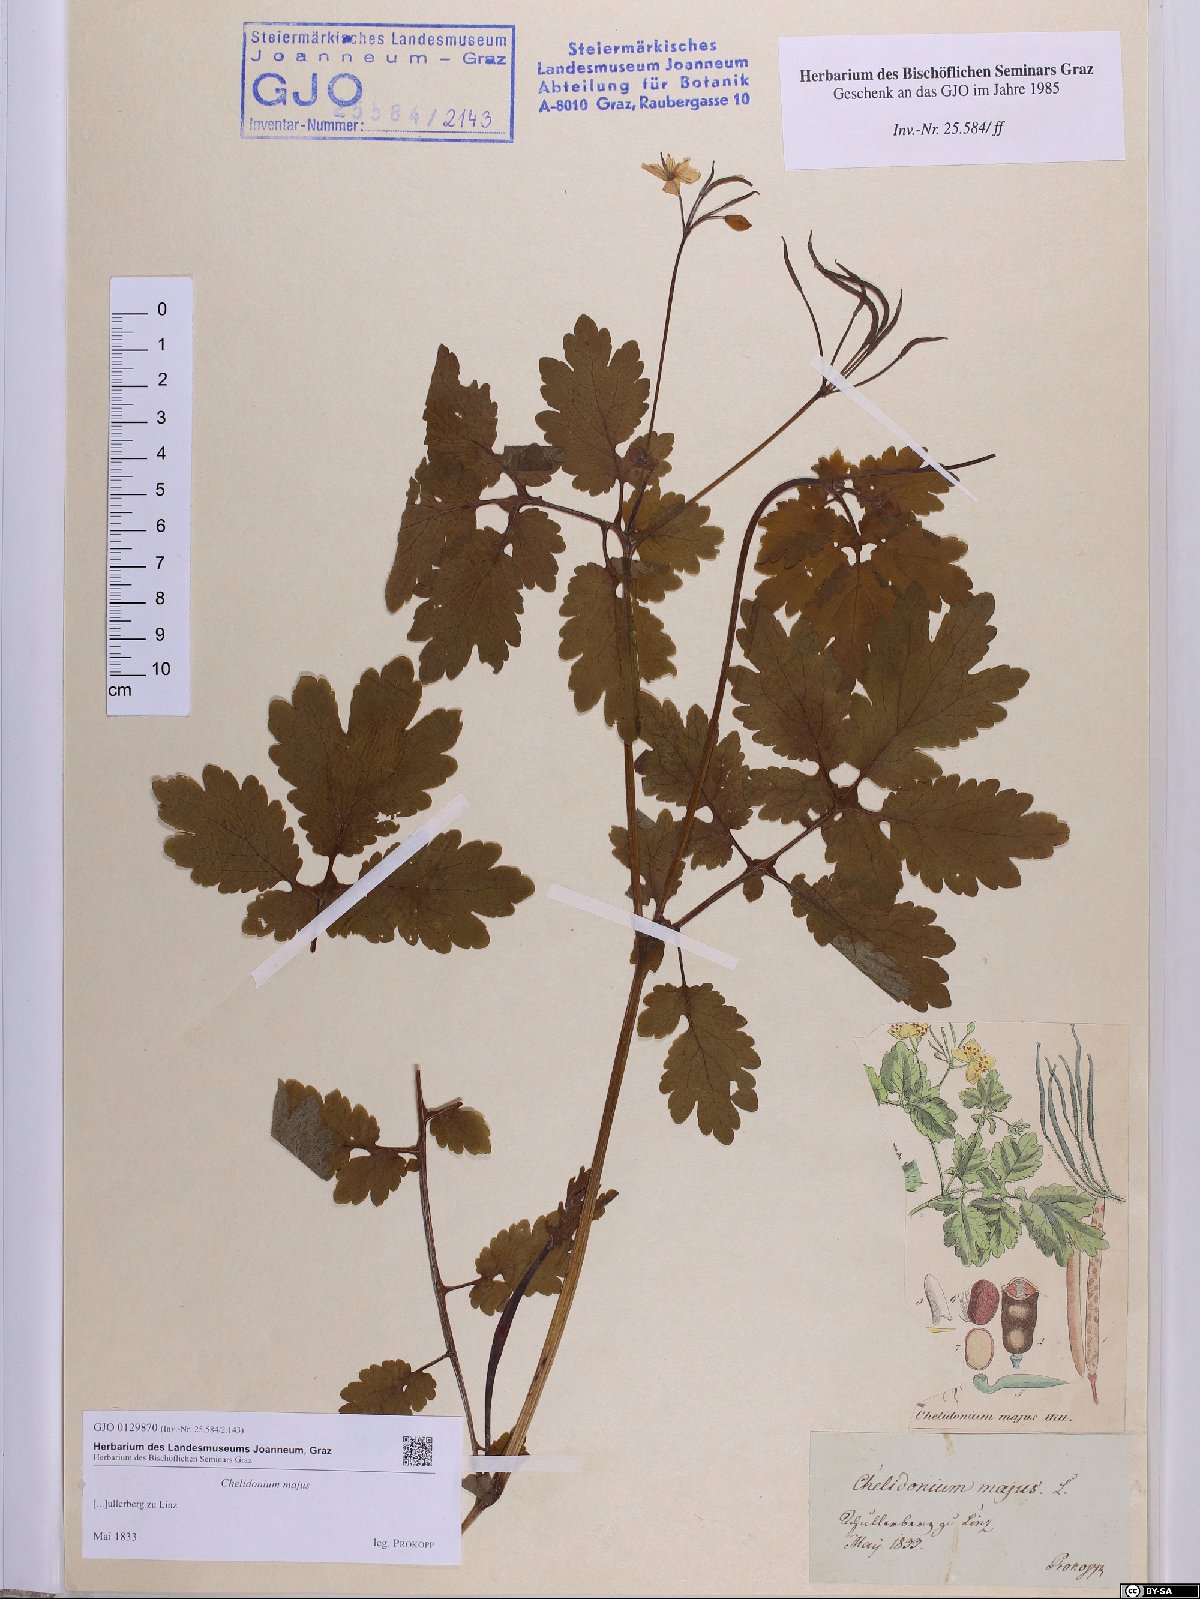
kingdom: Plantae
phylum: Tracheophyta
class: Magnoliopsida
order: Ranunculales
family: Papaveraceae
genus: Chelidonium
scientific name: Chelidonium majus
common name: Greater celandine
